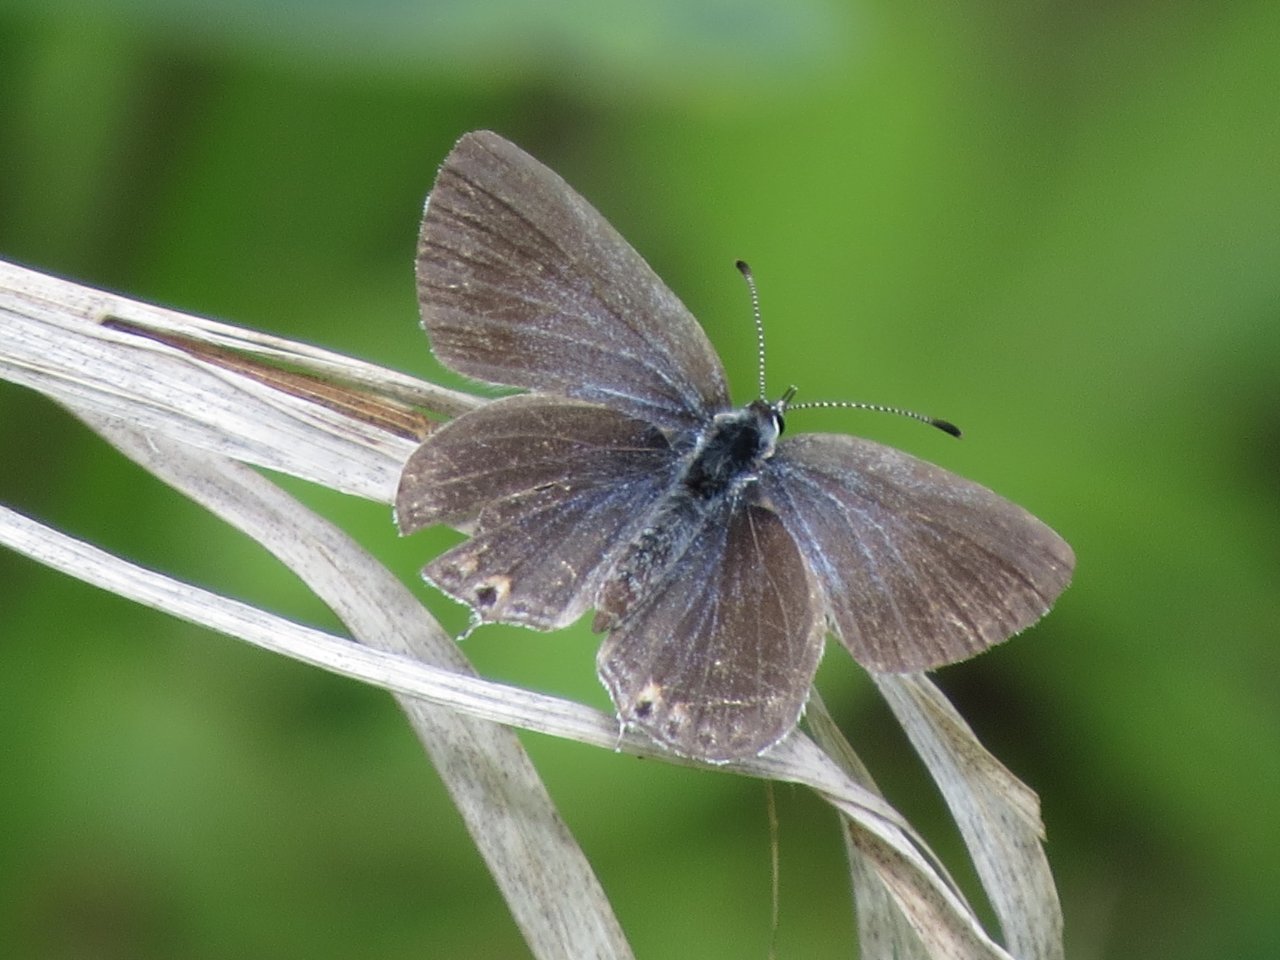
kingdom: Animalia
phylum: Arthropoda
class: Insecta
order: Lepidoptera
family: Lycaenidae
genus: Elkalyce
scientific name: Elkalyce amyntula
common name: Western Tailed-Blue
